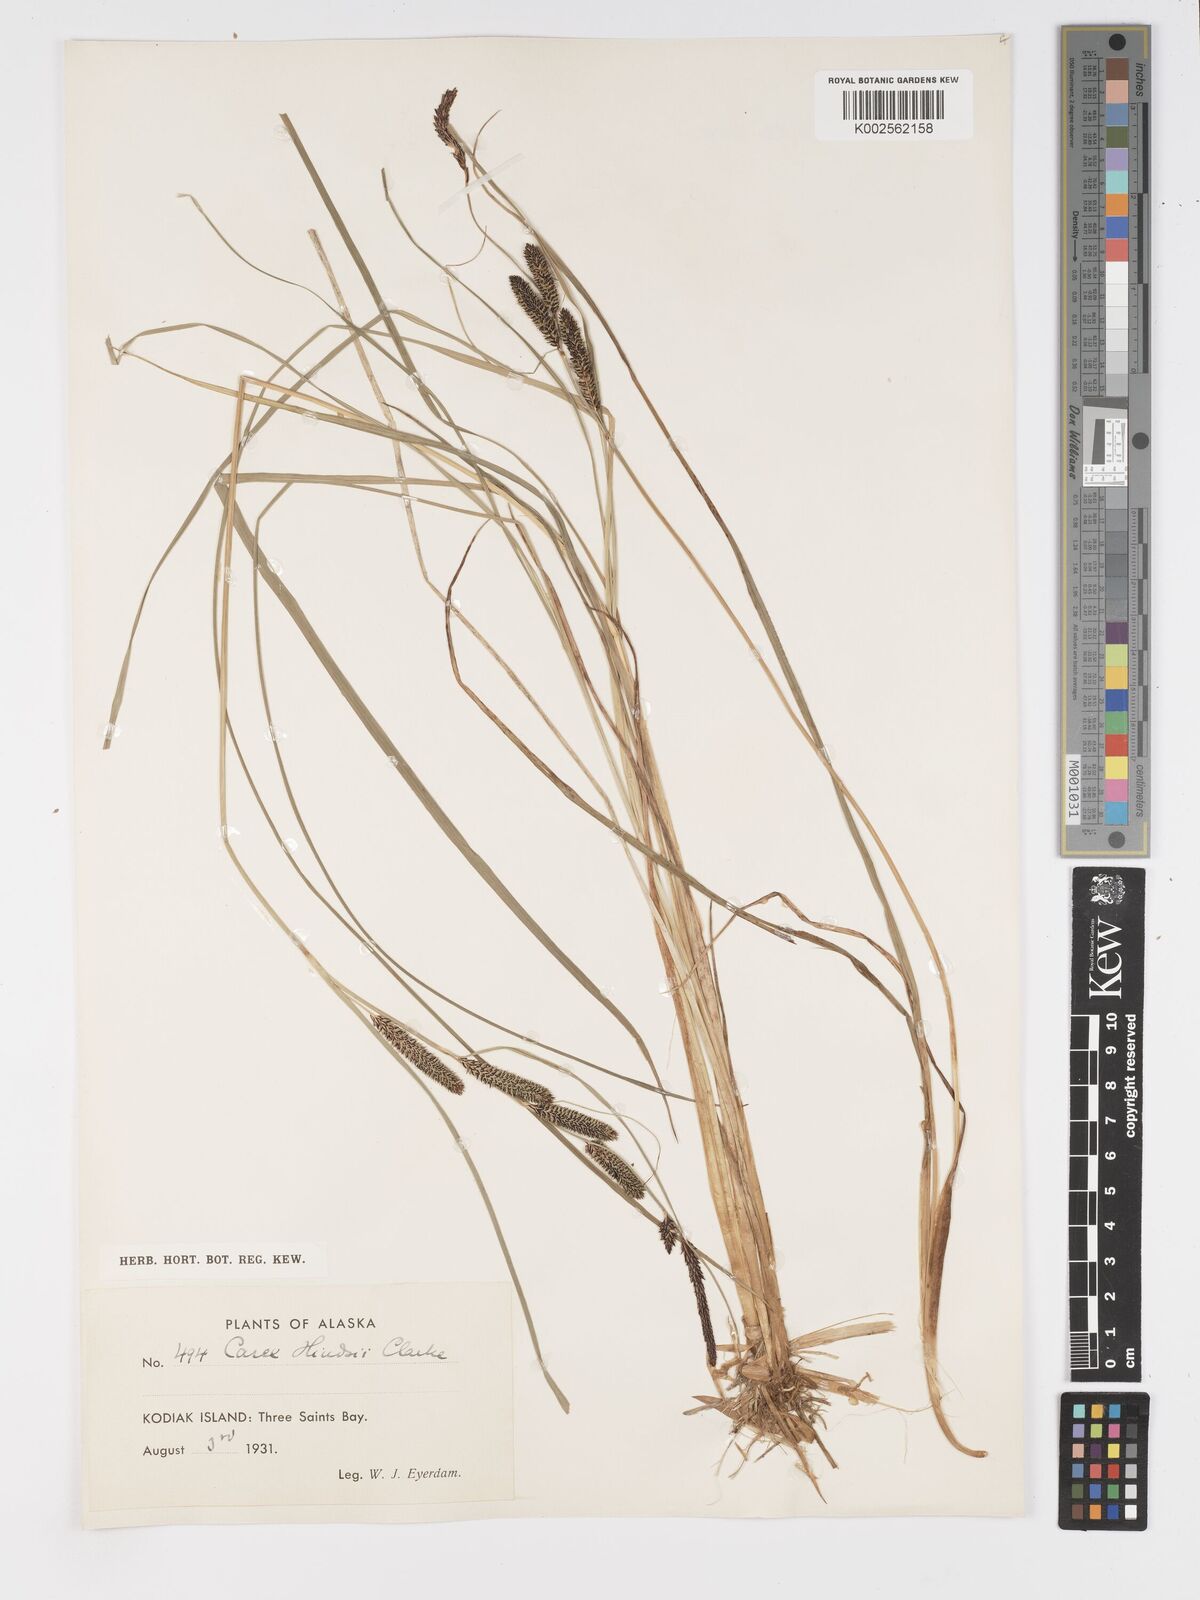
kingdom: Plantae
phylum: Tracheophyta
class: Liliopsida
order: Poales
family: Cyperaceae
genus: Carex
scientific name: Carex kelloggii
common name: Kellogg's sedge
